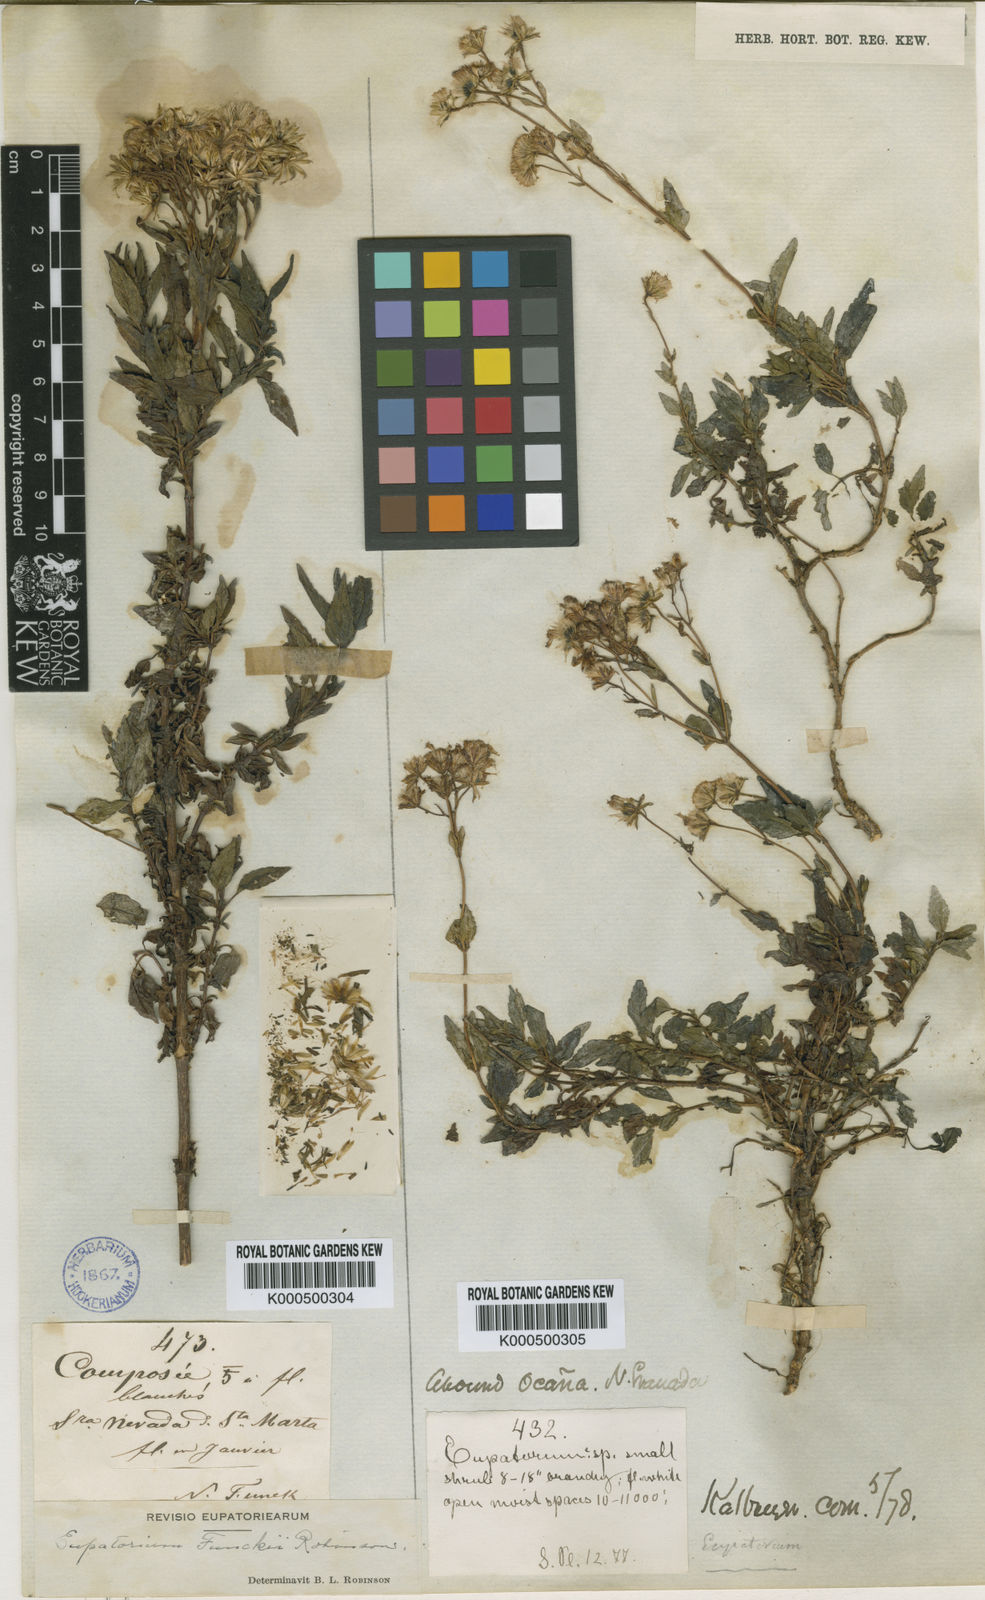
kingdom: Plantae
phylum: Tracheophyta
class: Magnoliopsida
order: Asterales
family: Asteraceae
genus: Ageratina
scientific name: Ageratina funckii
